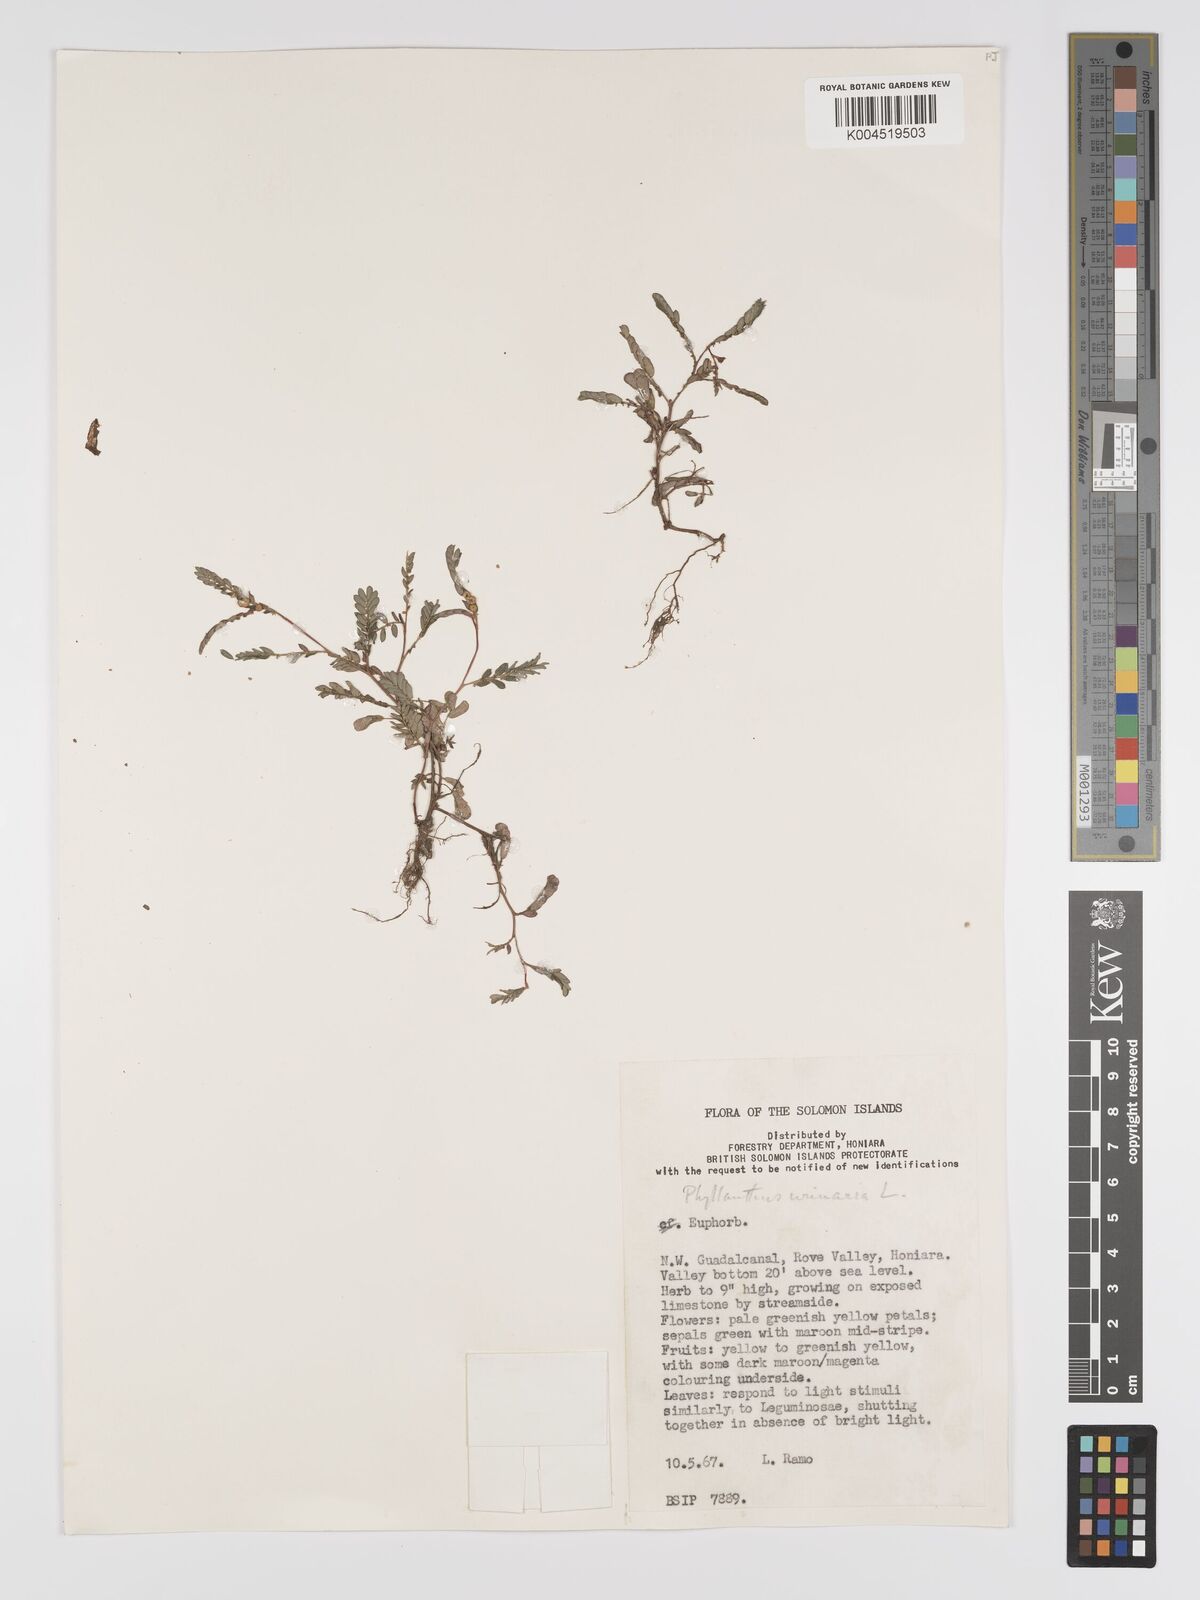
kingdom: Plantae
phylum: Tracheophyta
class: Magnoliopsida
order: Malpighiales
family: Phyllanthaceae
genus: Phyllanthus
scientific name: Phyllanthus urinaria
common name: Chamber bitter
